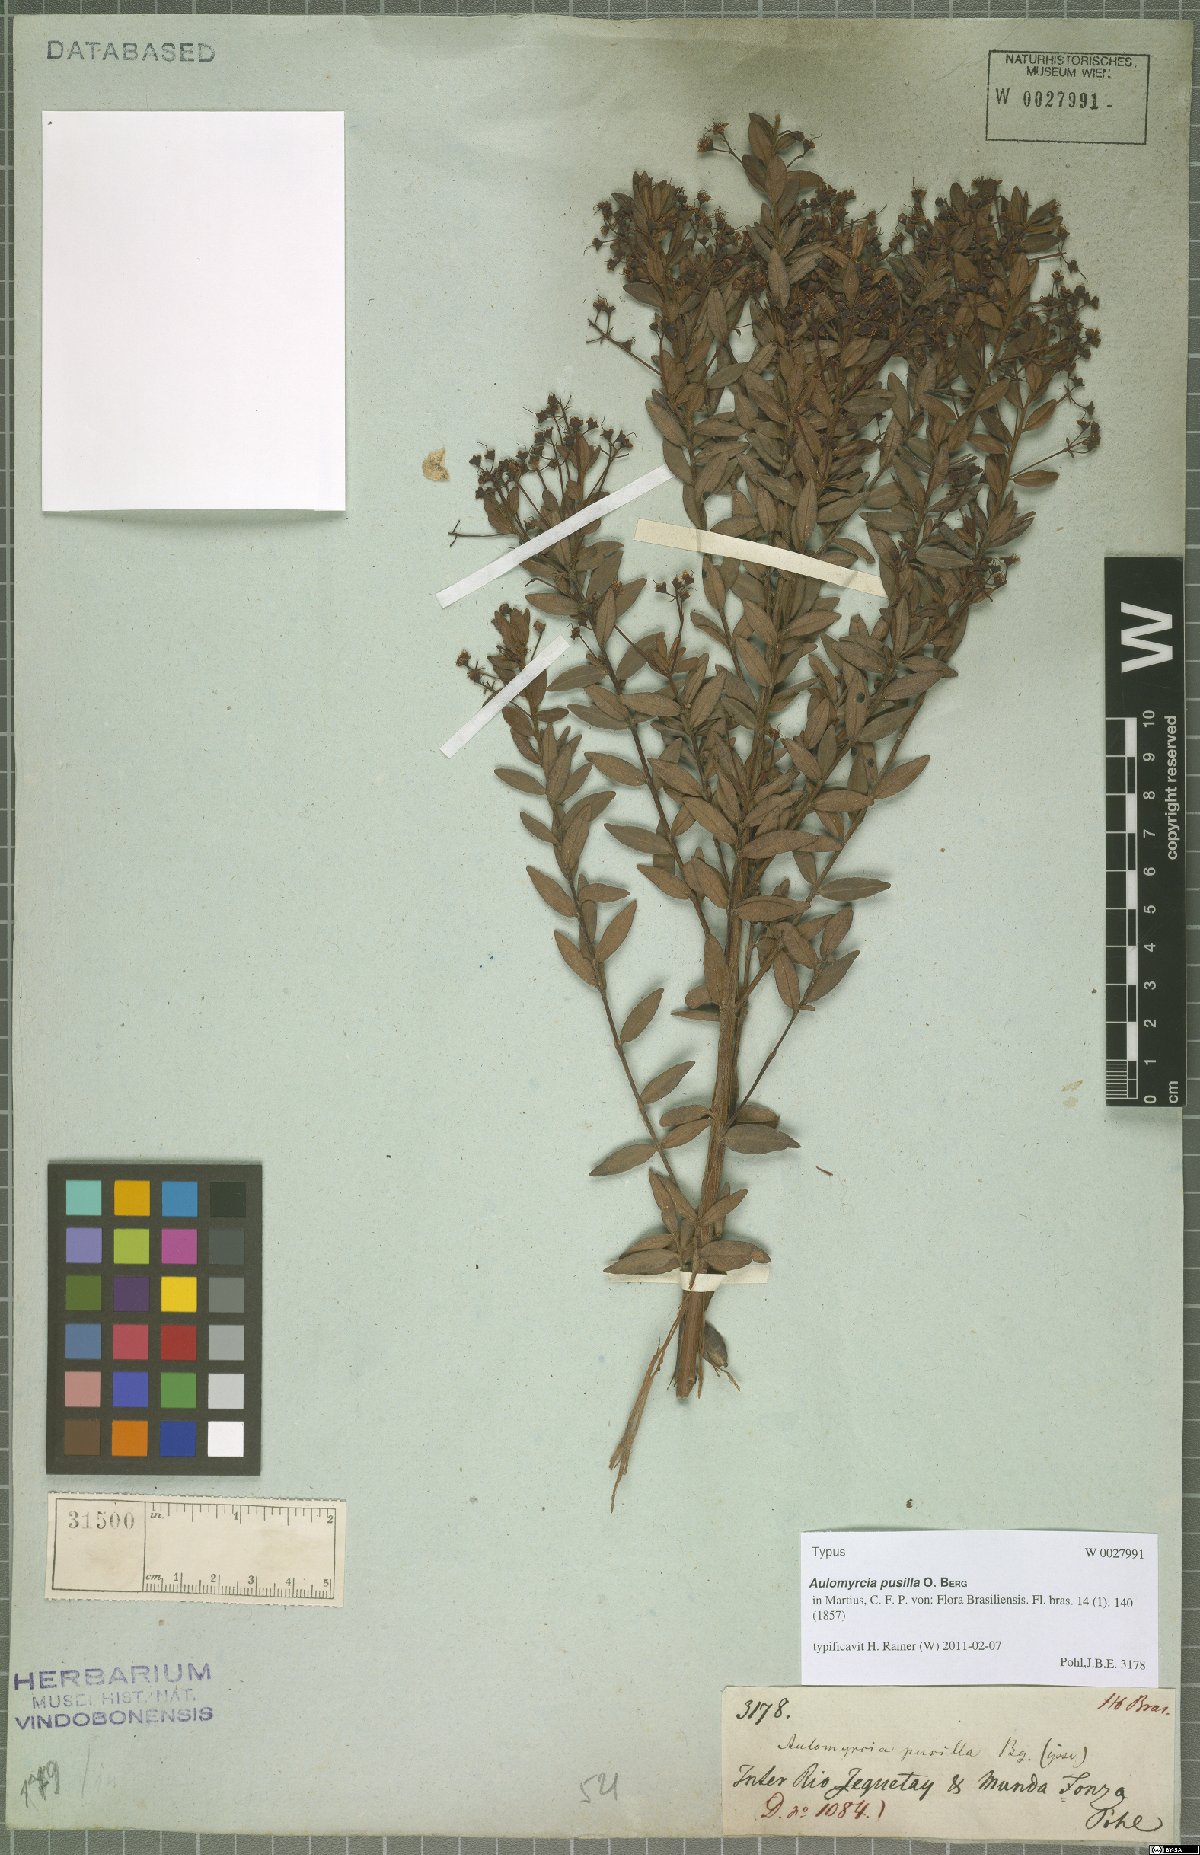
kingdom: Plantae
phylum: Tracheophyta
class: Magnoliopsida
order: Myrtales
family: Myrtaceae
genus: Myrcia
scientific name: Myrcia guianensis
